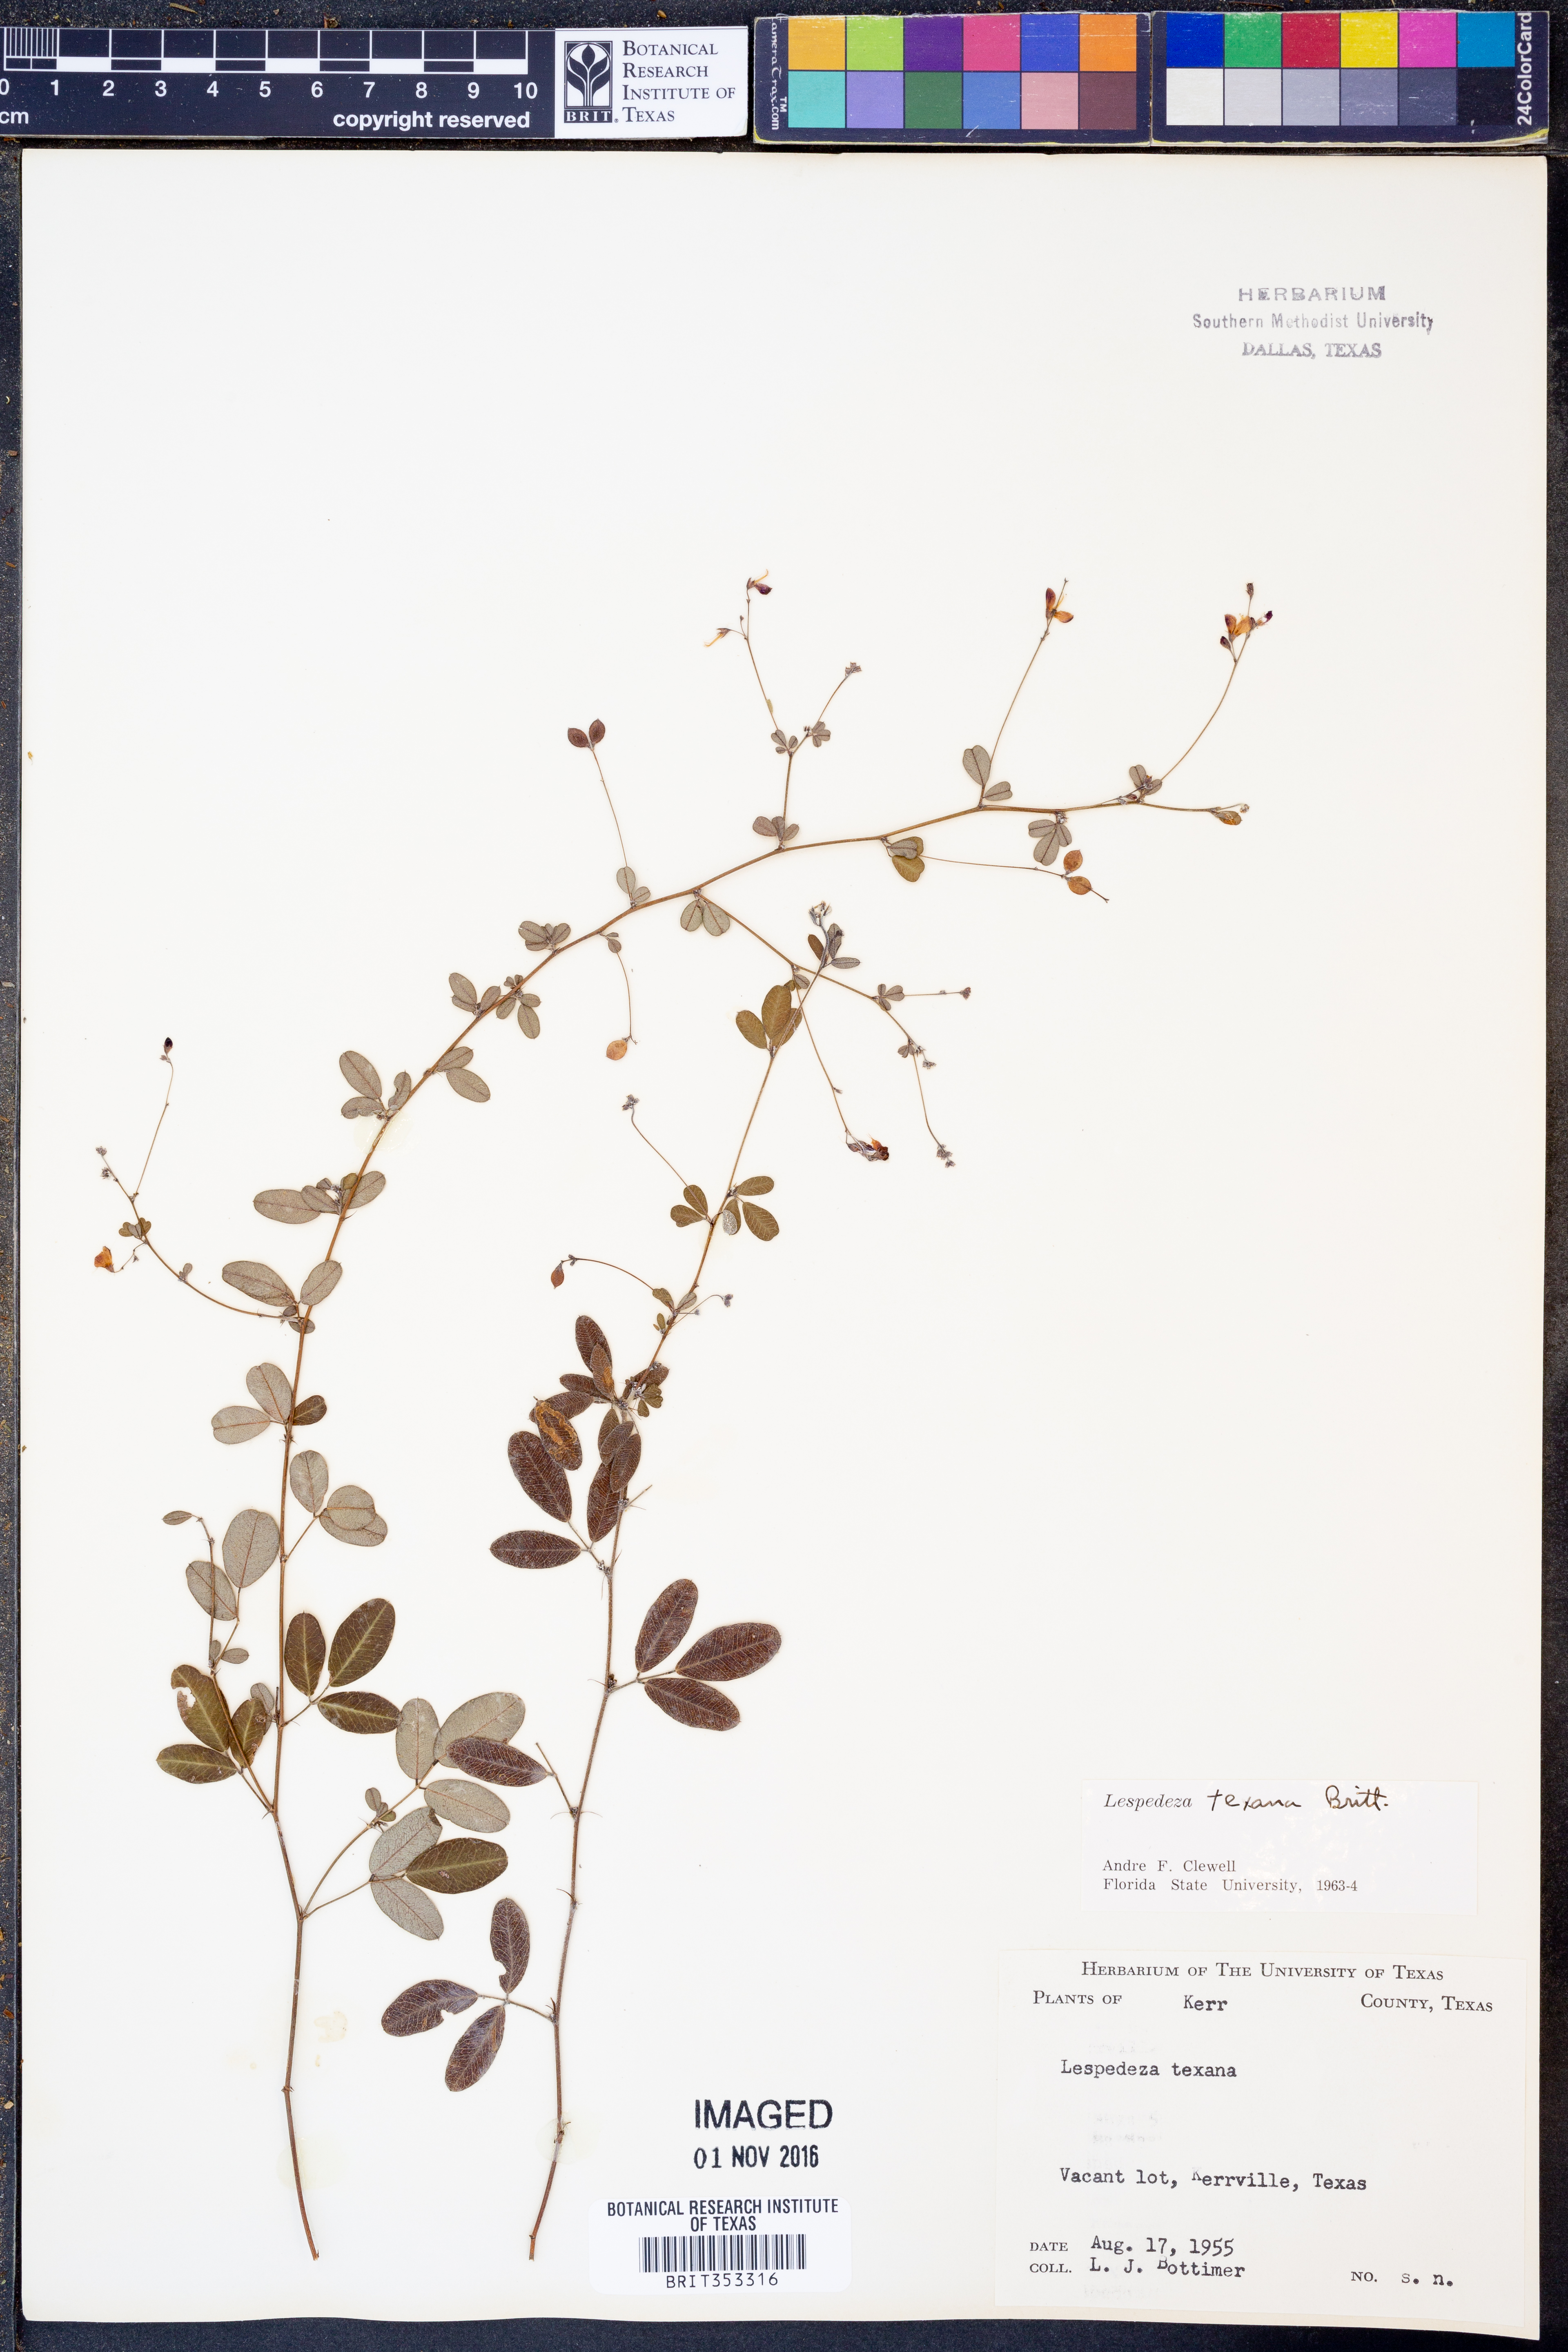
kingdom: Plantae
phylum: Tracheophyta
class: Magnoliopsida
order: Fabales
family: Fabaceae
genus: Lespedeza
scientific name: Lespedeza texana
